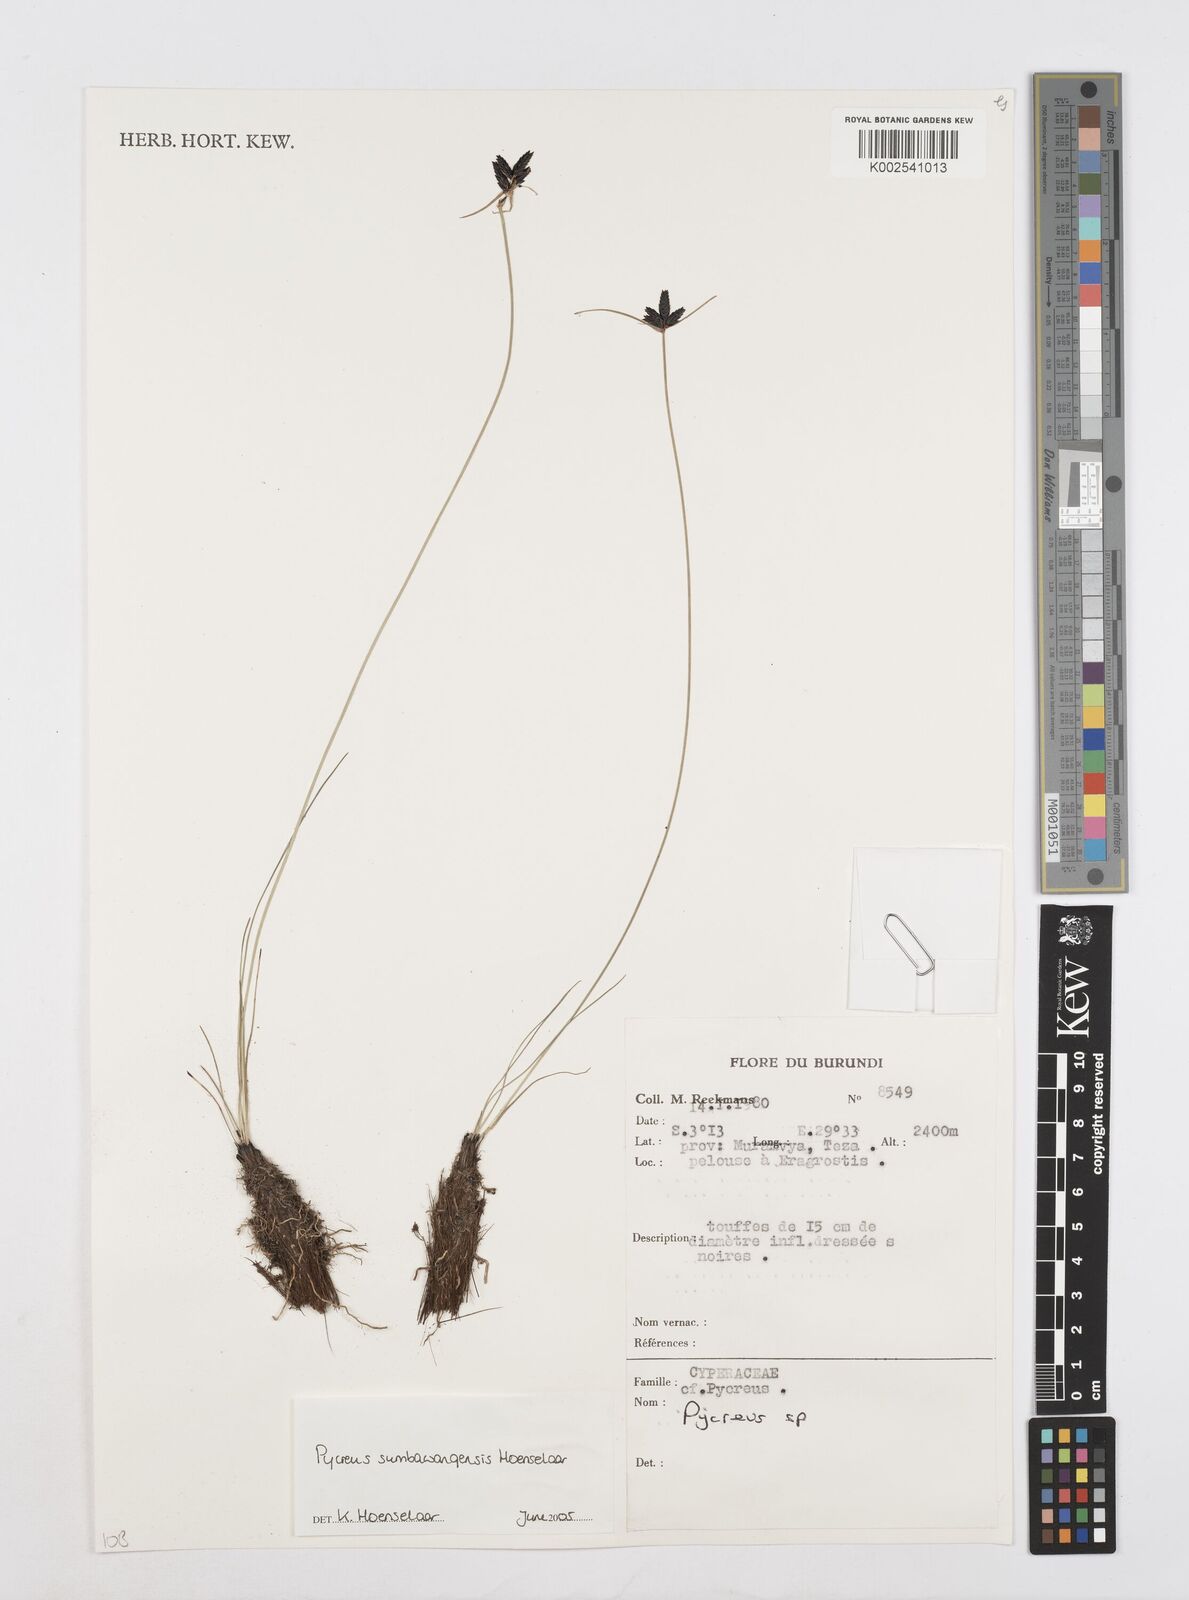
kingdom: Plantae
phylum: Tracheophyta
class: Liliopsida
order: Poales
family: Cyperaceae
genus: Cyperus
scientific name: Cyperus nigricans
